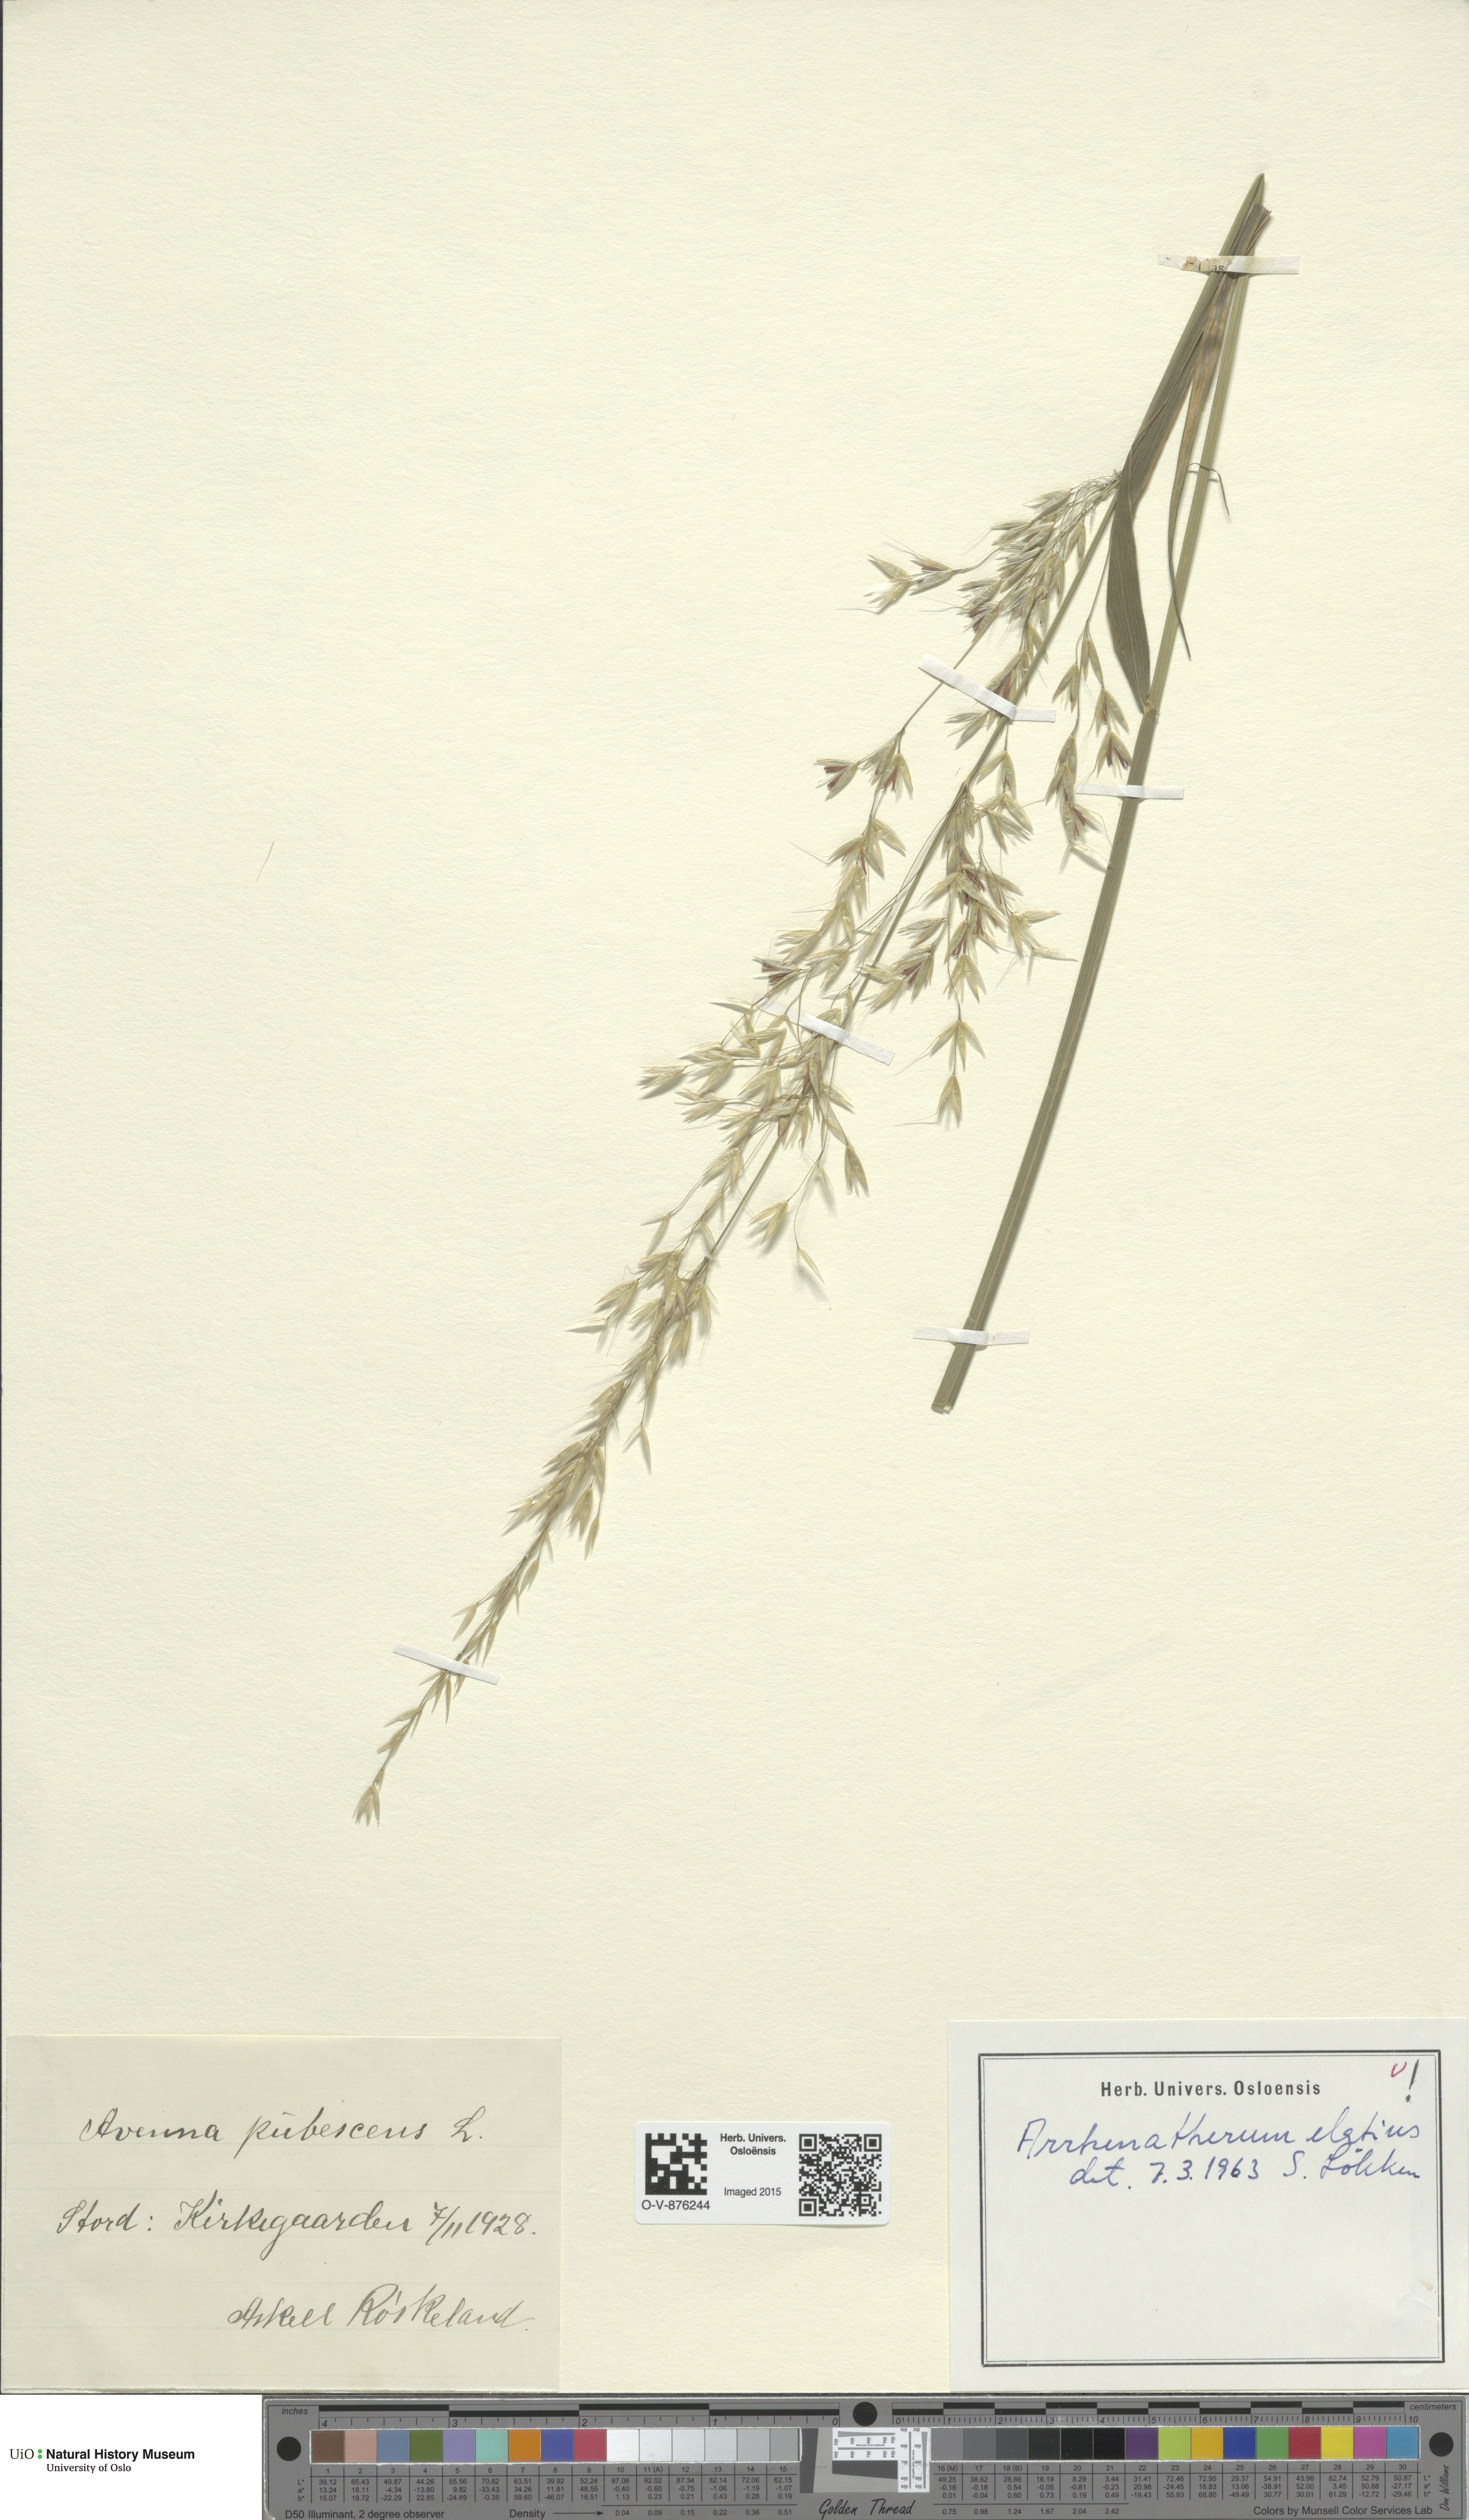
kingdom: Plantae
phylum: Tracheophyta
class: Liliopsida
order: Poales
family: Poaceae
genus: Arrhenatherum
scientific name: Arrhenatherum elatius
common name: Tall oatgrass
